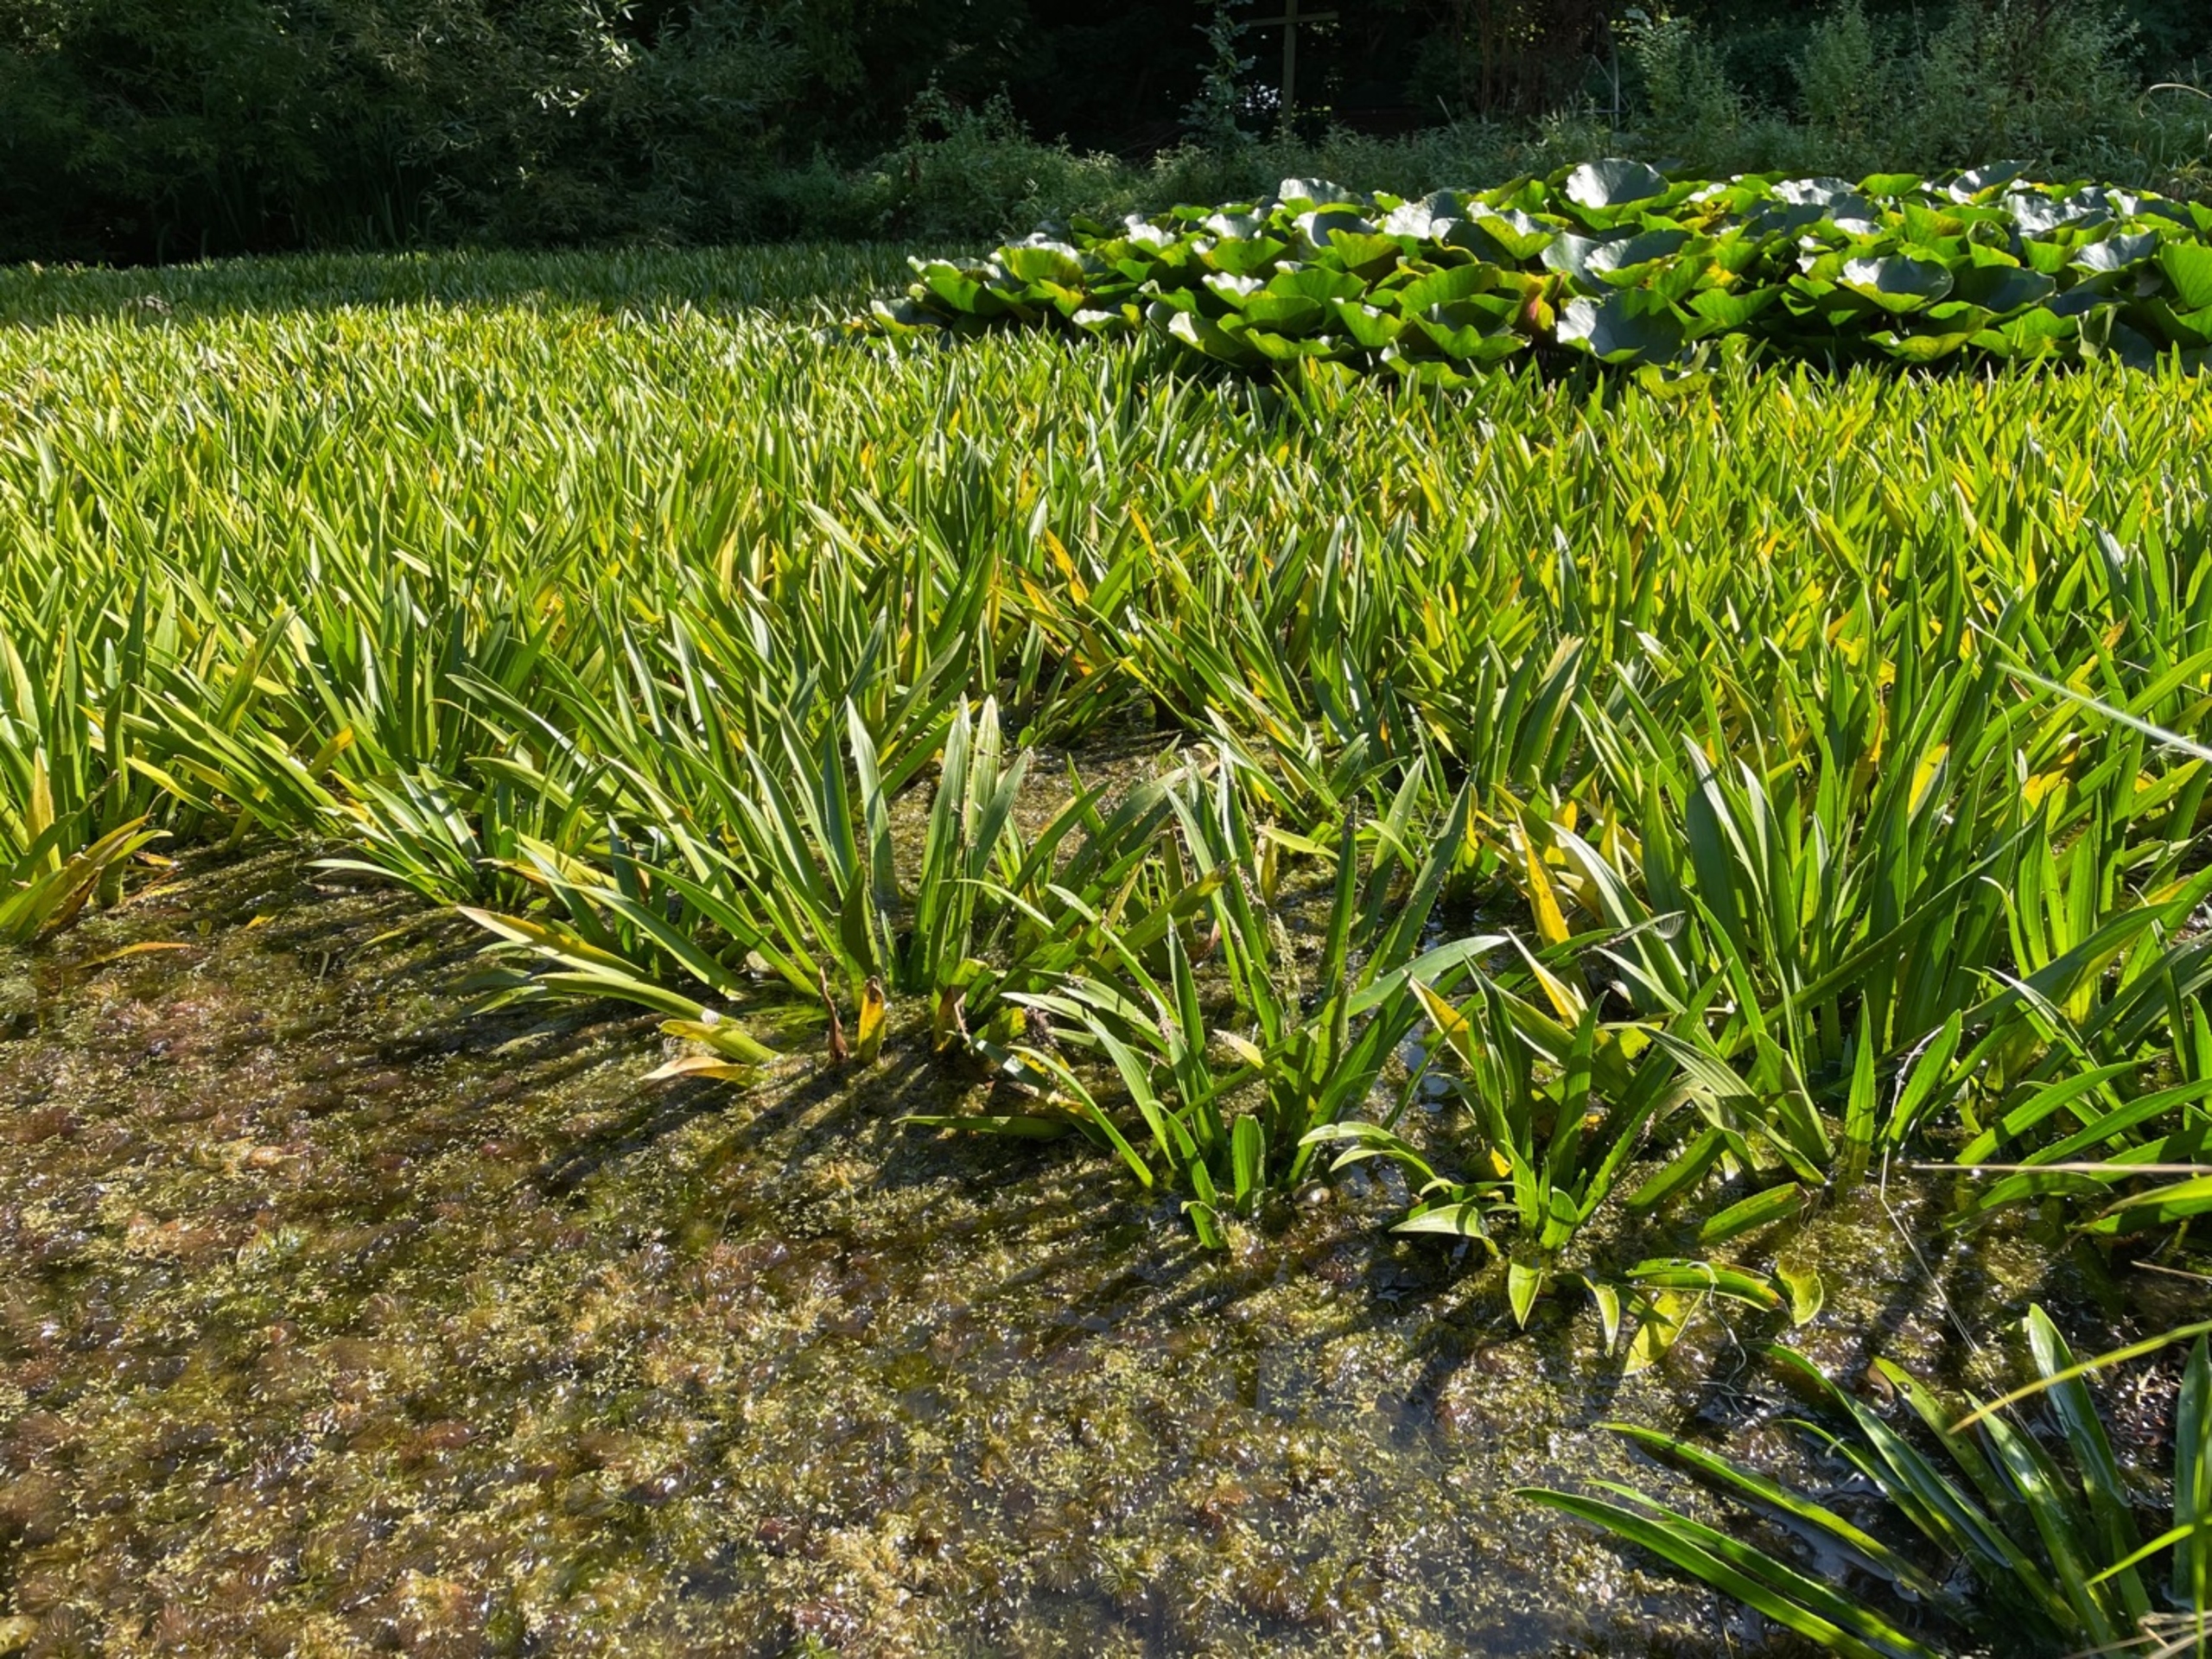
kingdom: Plantae
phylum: Tracheophyta
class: Liliopsida
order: Alismatales
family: Hydrocharitaceae
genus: Stratiotes
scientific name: Stratiotes aloides
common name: Krebseklo
